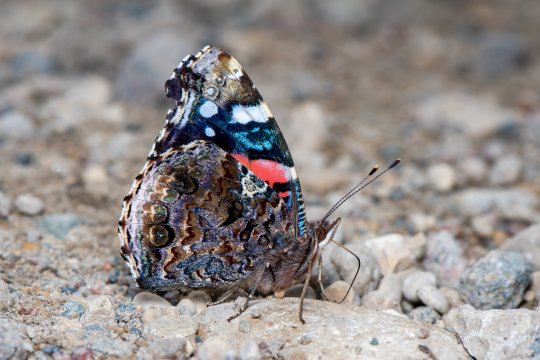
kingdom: Animalia
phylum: Arthropoda
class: Insecta
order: Lepidoptera
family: Nymphalidae
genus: Vanessa
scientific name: Vanessa atalanta
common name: Red Admiral
